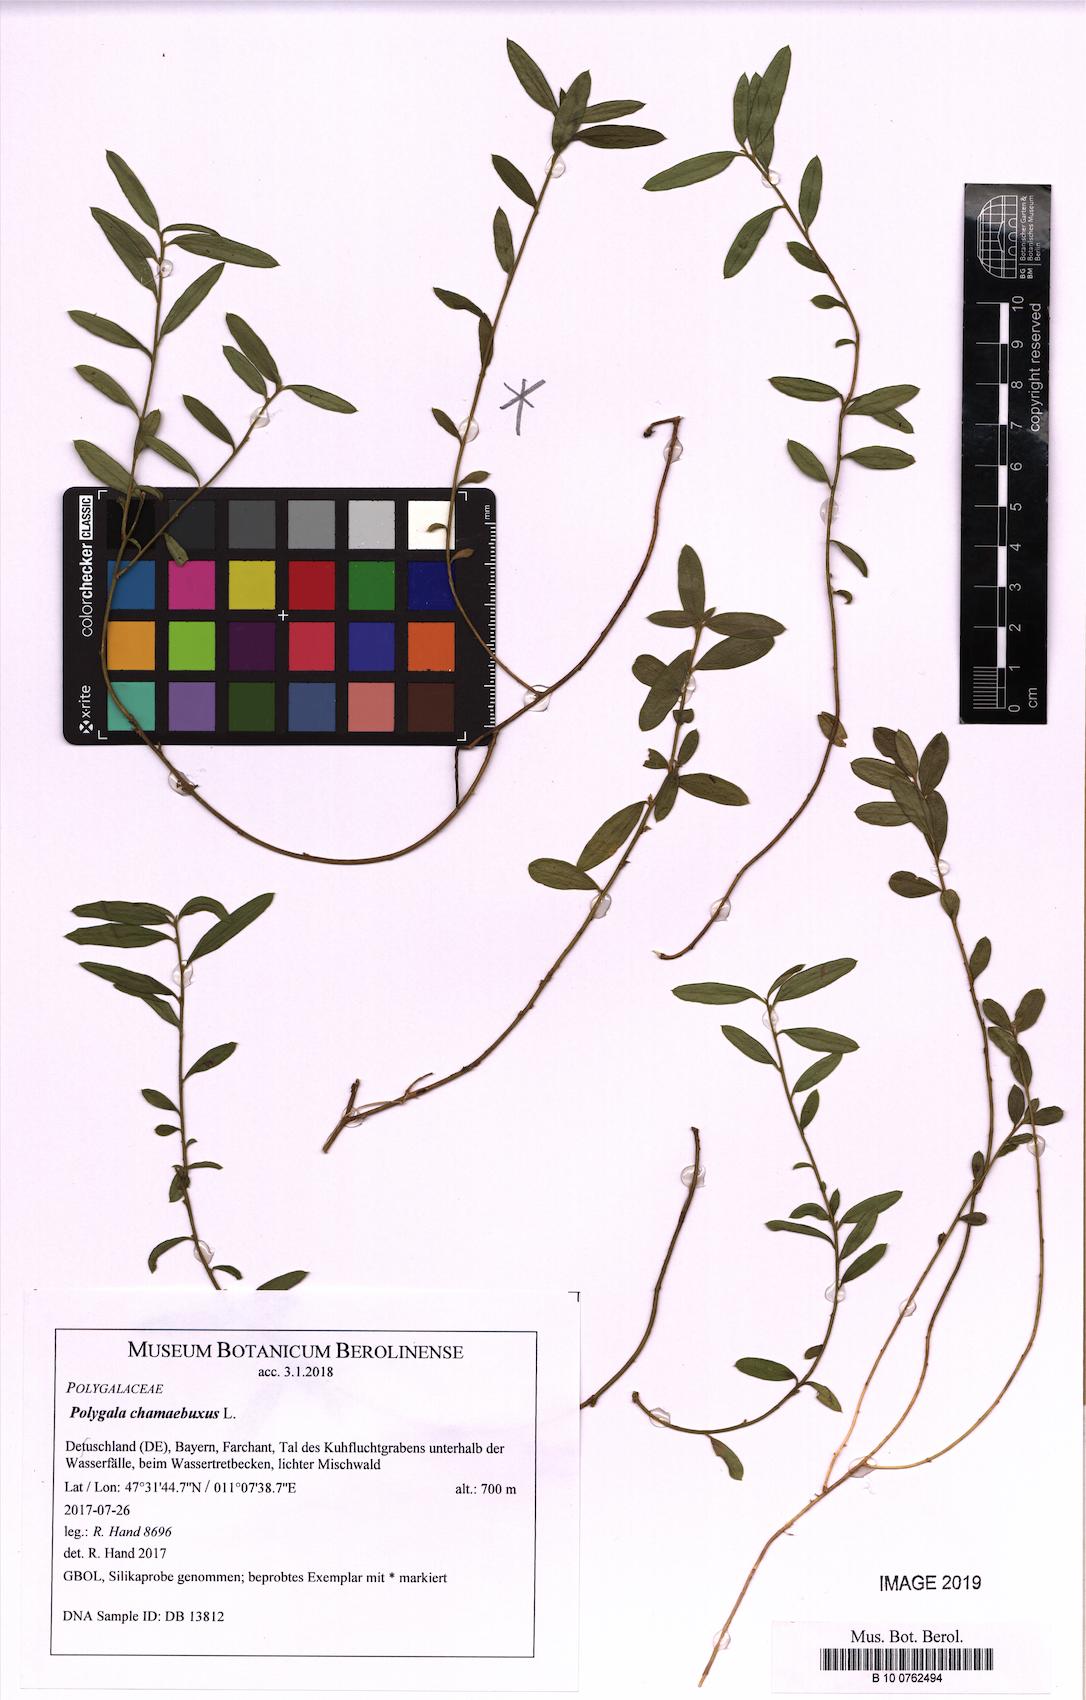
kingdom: Plantae
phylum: Tracheophyta
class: Magnoliopsida
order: Fabales
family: Polygalaceae
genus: Polygaloides
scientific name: Polygaloides chamaebuxus
